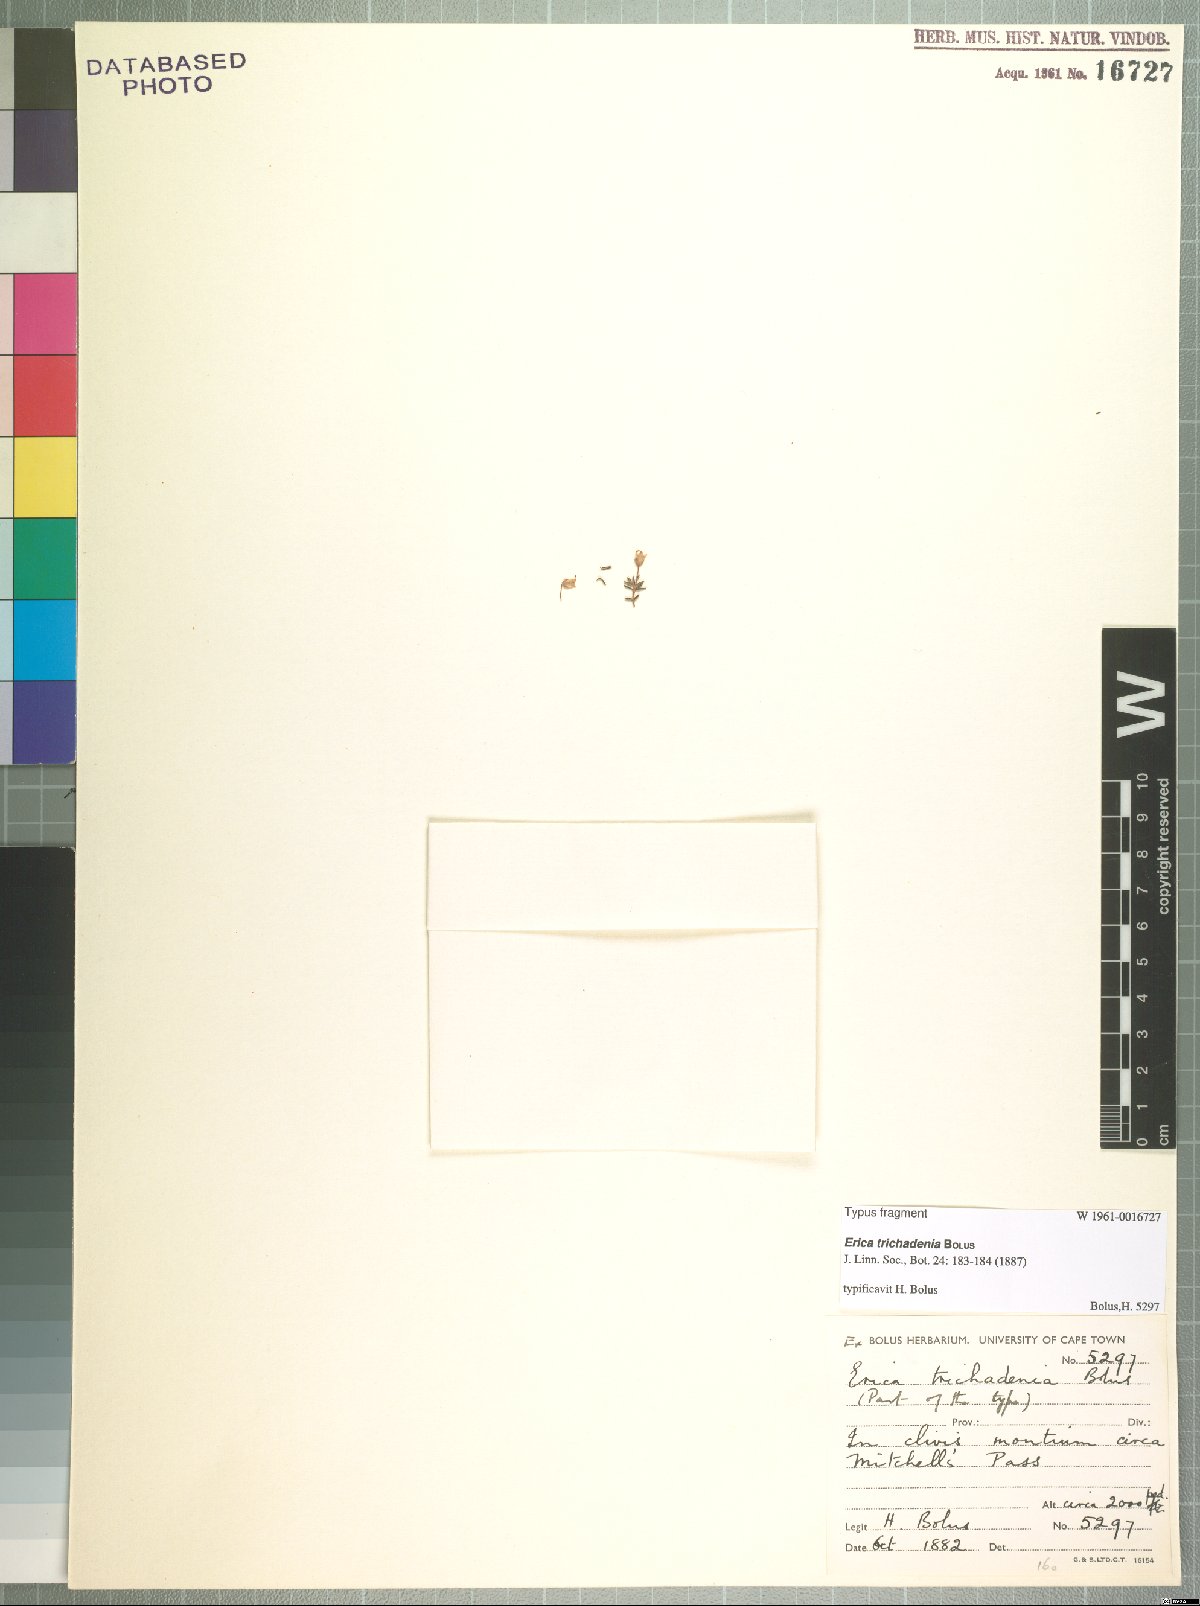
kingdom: Plantae
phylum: Tracheophyta
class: Magnoliopsida
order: Ericales
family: Ericaceae
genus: Erica
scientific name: Erica trichadenia
